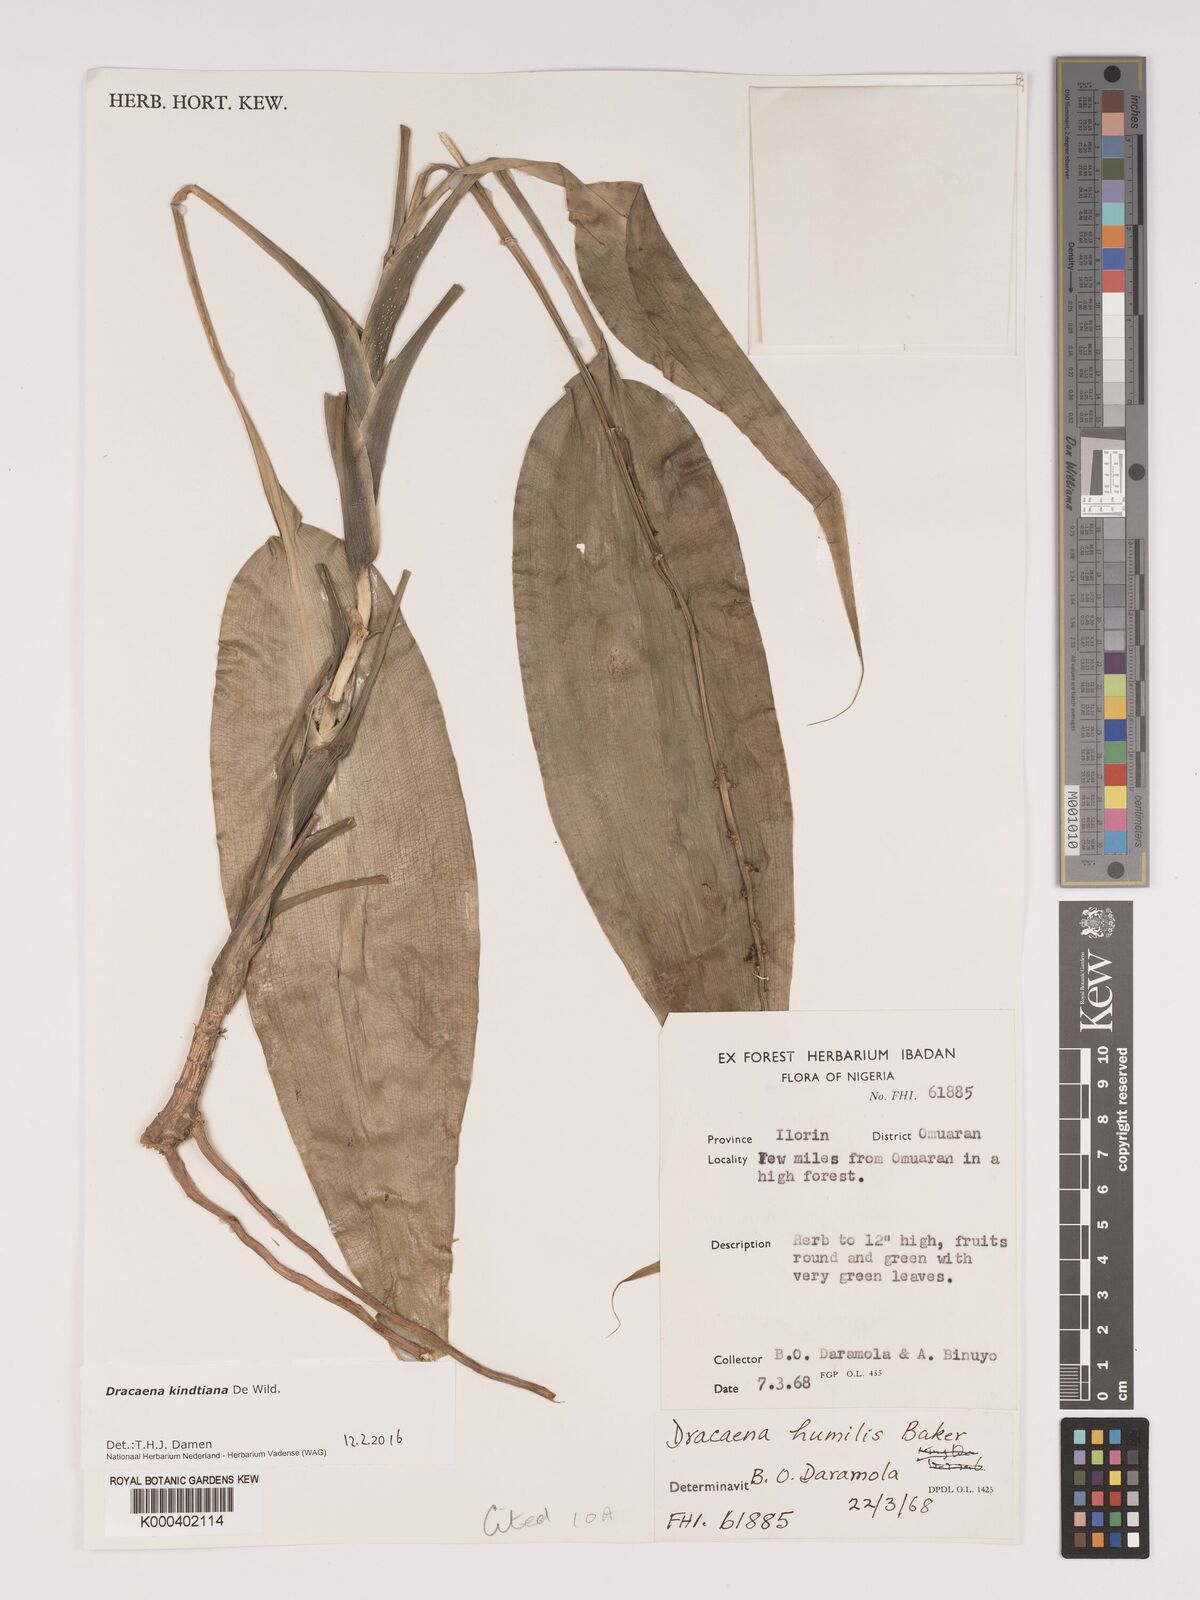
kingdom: Plantae
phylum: Tracheophyta
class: Liliopsida
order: Asparagales
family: Asparagaceae
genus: Dracaena
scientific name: Dracaena kindtiana
